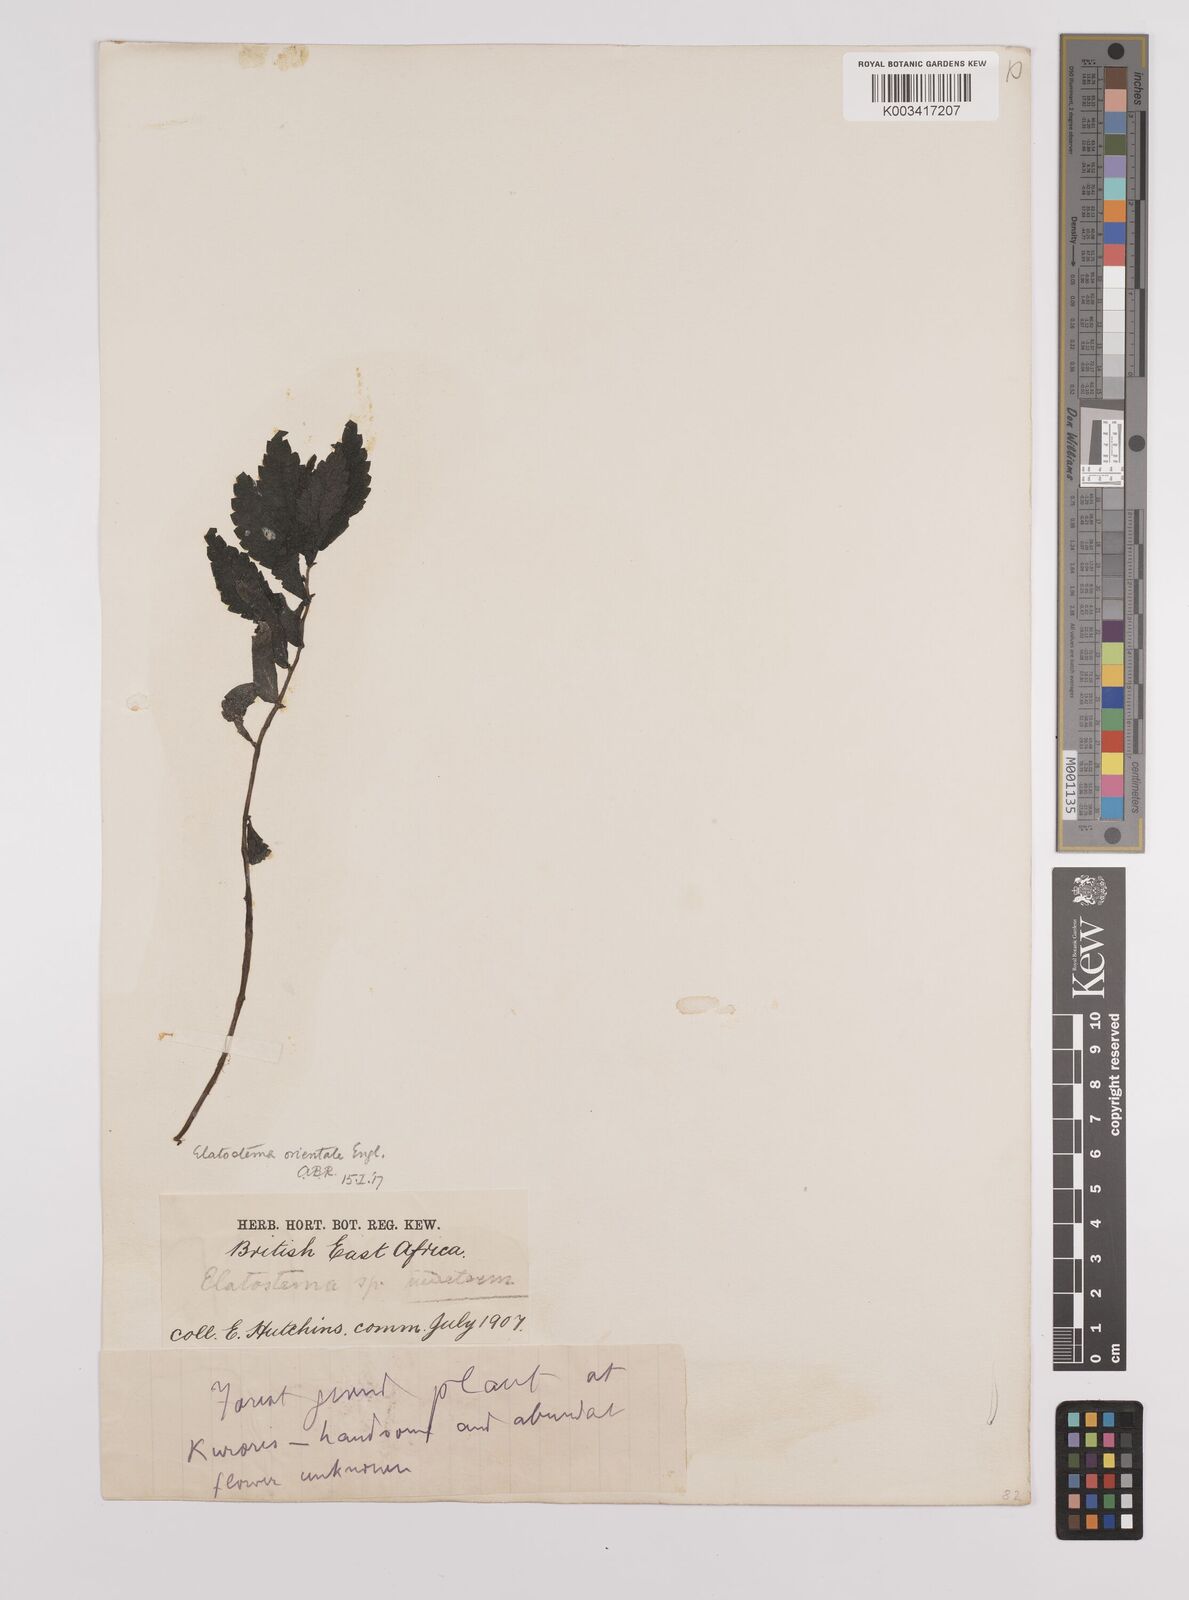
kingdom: Plantae
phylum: Tracheophyta
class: Magnoliopsida
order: Rosales
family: Urticaceae
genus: Elatostema
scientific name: Elatostema monticola
